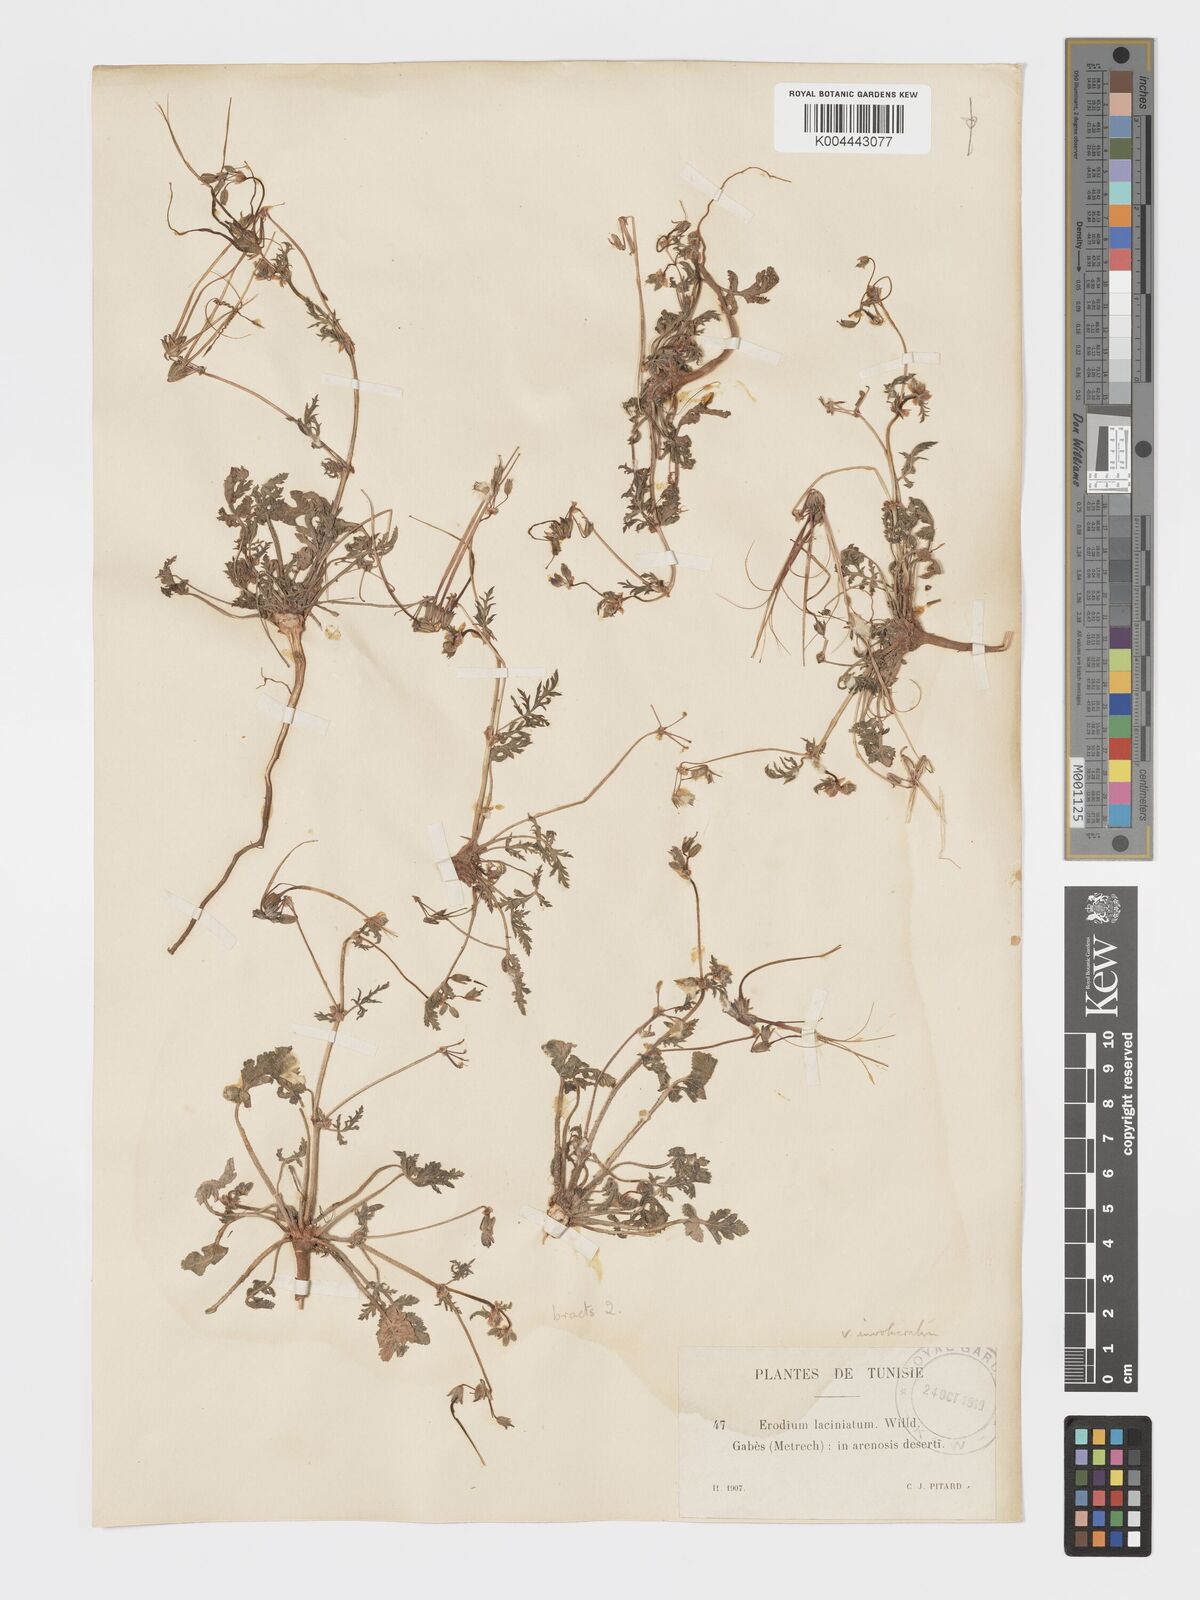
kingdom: Plantae
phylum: Tracheophyta
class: Magnoliopsida
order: Geraniales
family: Geraniaceae
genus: Erodium
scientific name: Erodium laciniatum
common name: Cutleaf stork's bill
